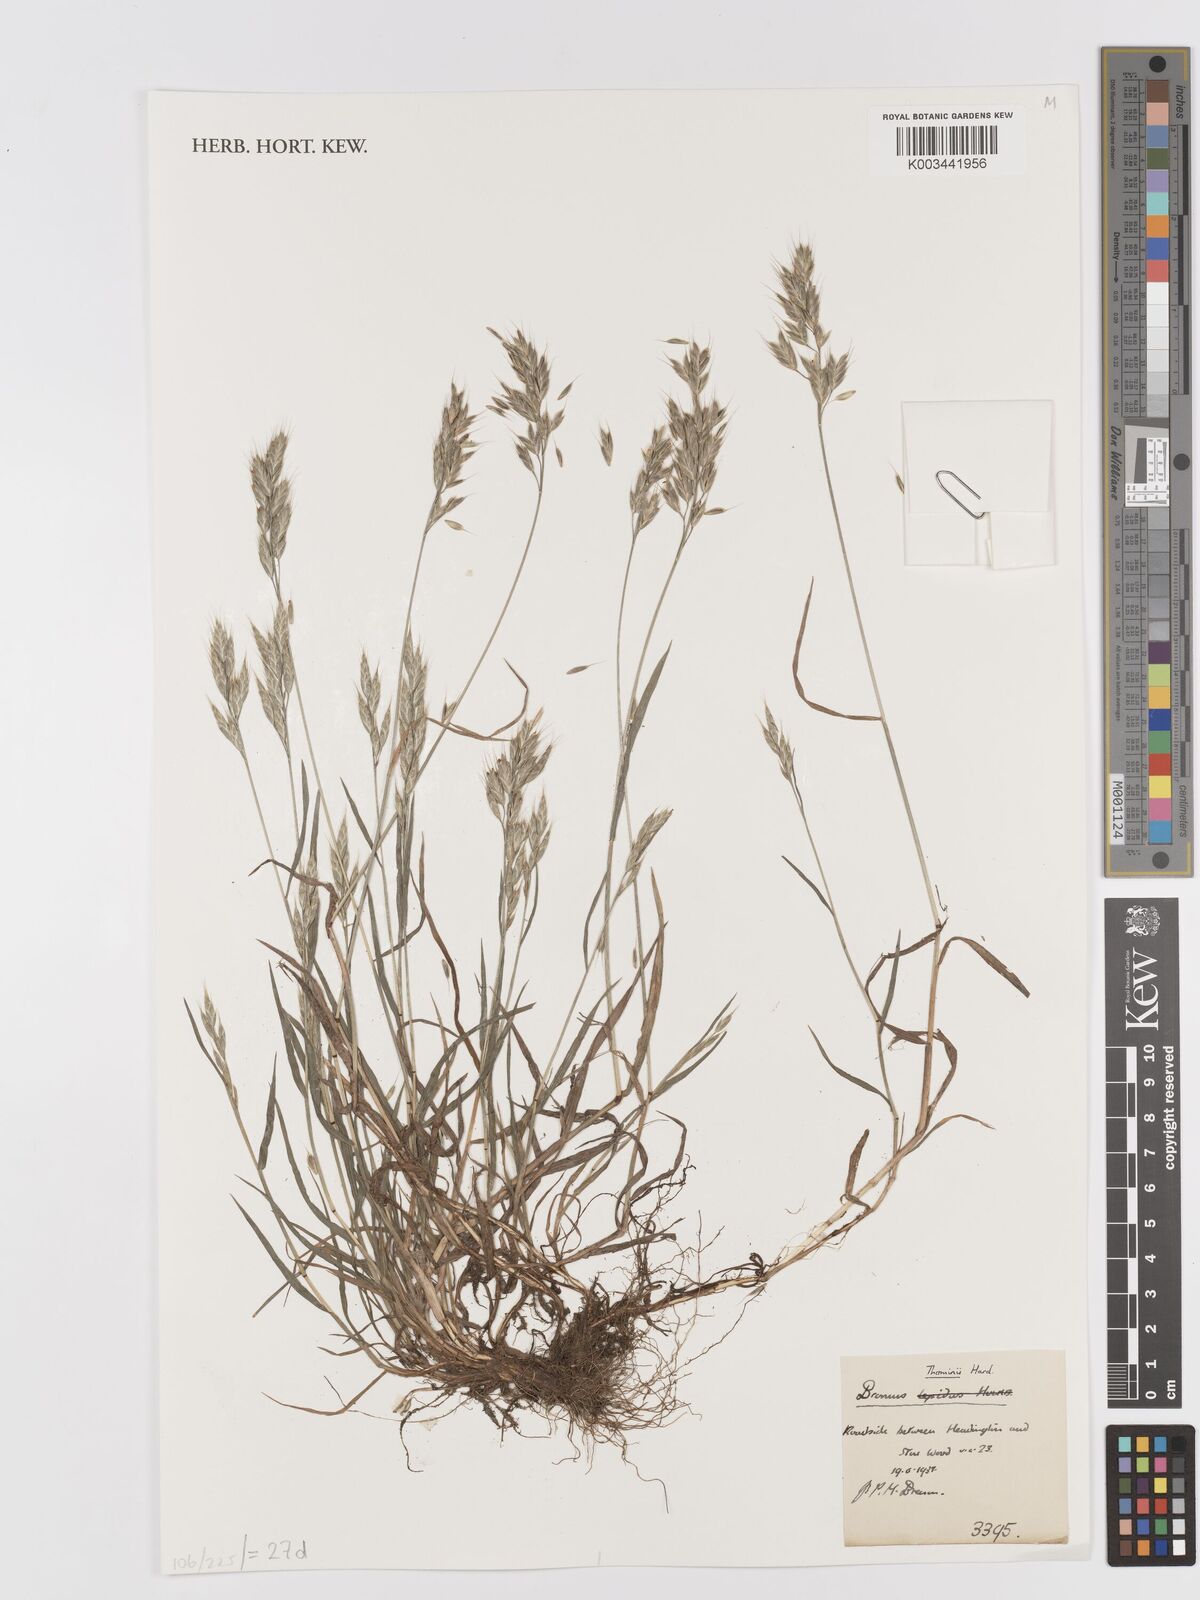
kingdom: Plantae
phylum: Tracheophyta
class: Liliopsida
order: Poales
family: Poaceae
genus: Bromus
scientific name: Bromus hordeaceus
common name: Soft brome
